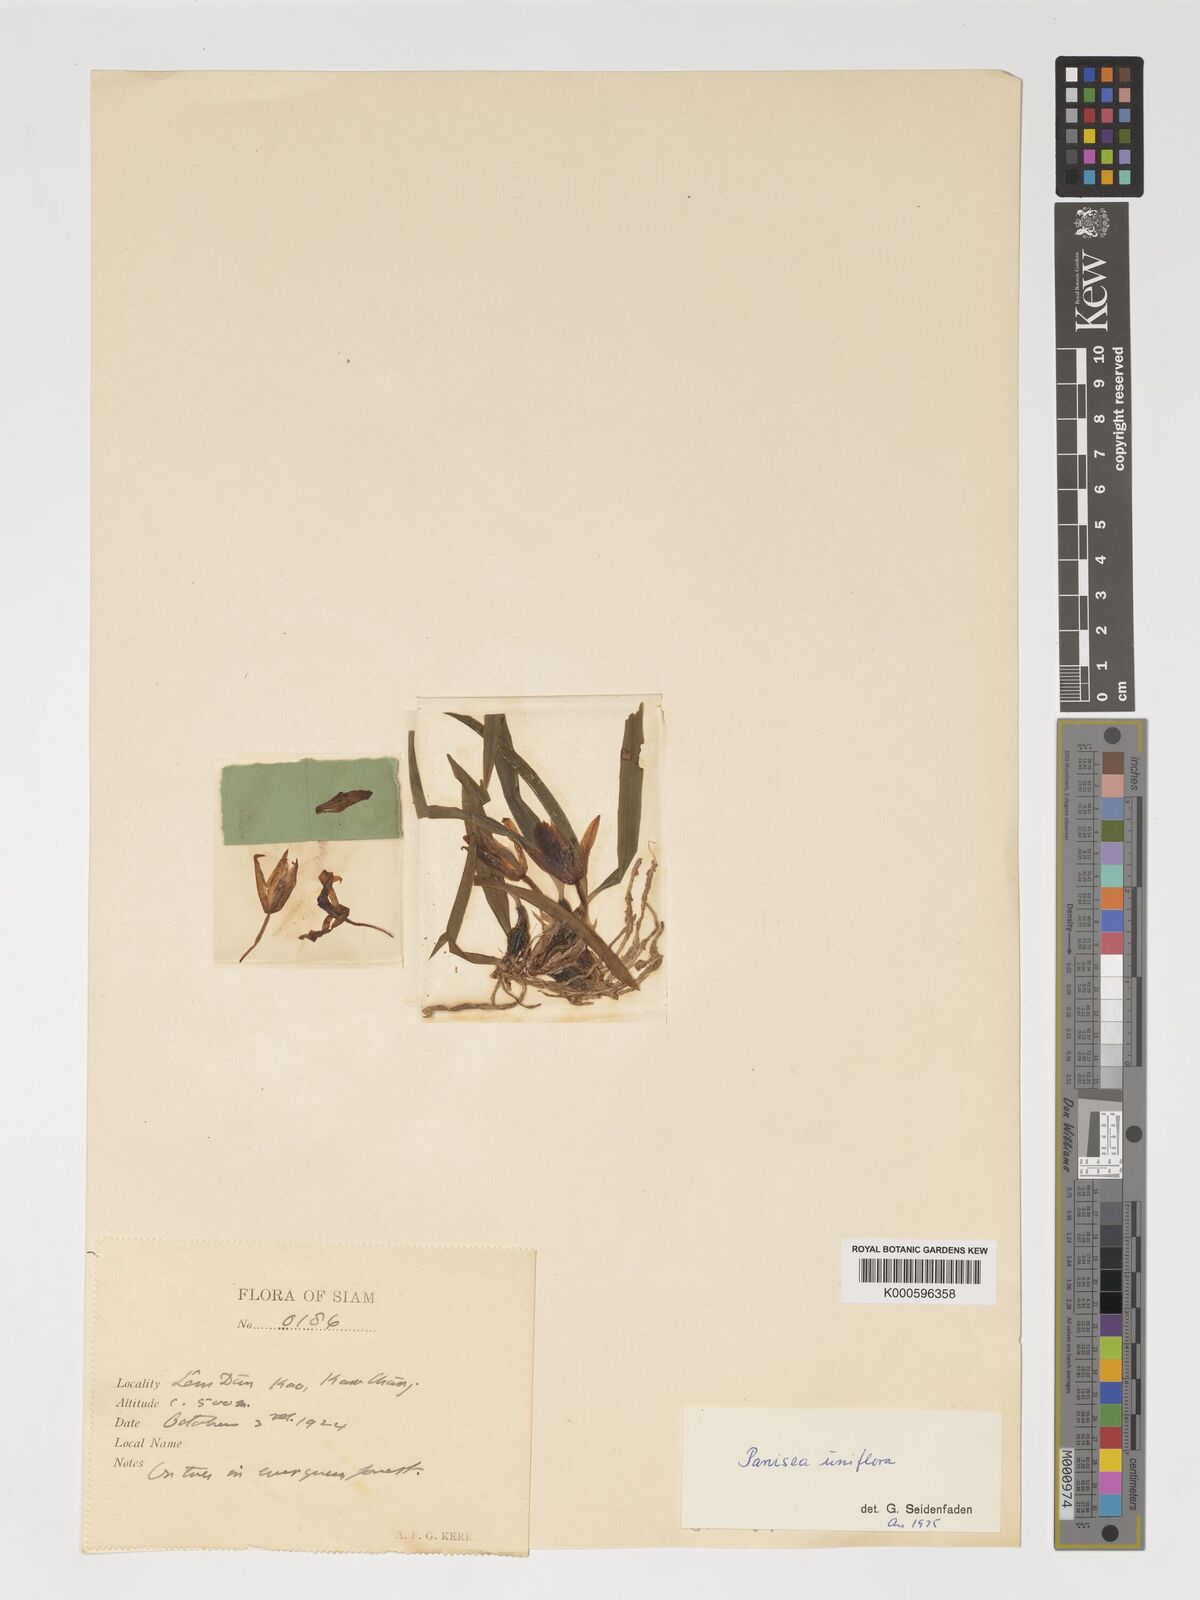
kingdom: Plantae
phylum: Tracheophyta
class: Liliopsida
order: Asparagales
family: Orchidaceae
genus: Coelogyne
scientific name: Coelogyne uniflora
